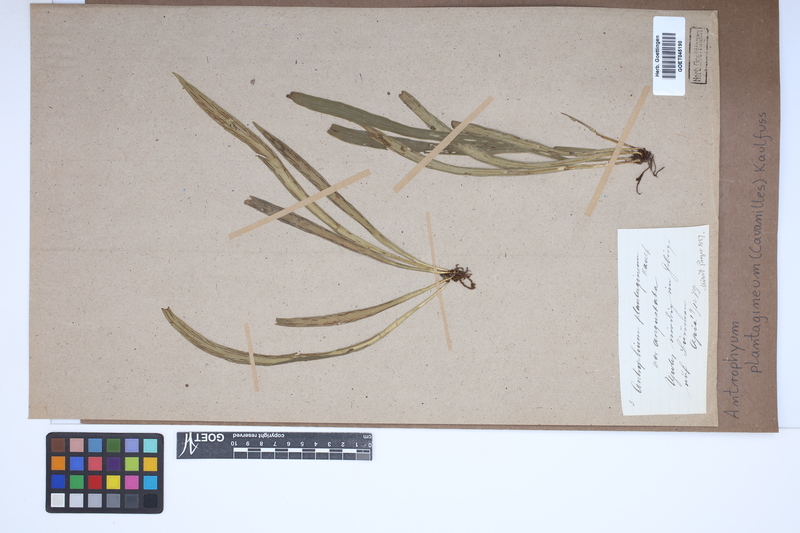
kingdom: Plantae
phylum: Tracheophyta
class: Polypodiopsida
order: Polypodiales
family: Pteridaceae
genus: Antrophyum
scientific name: Antrophyum plantagineum
